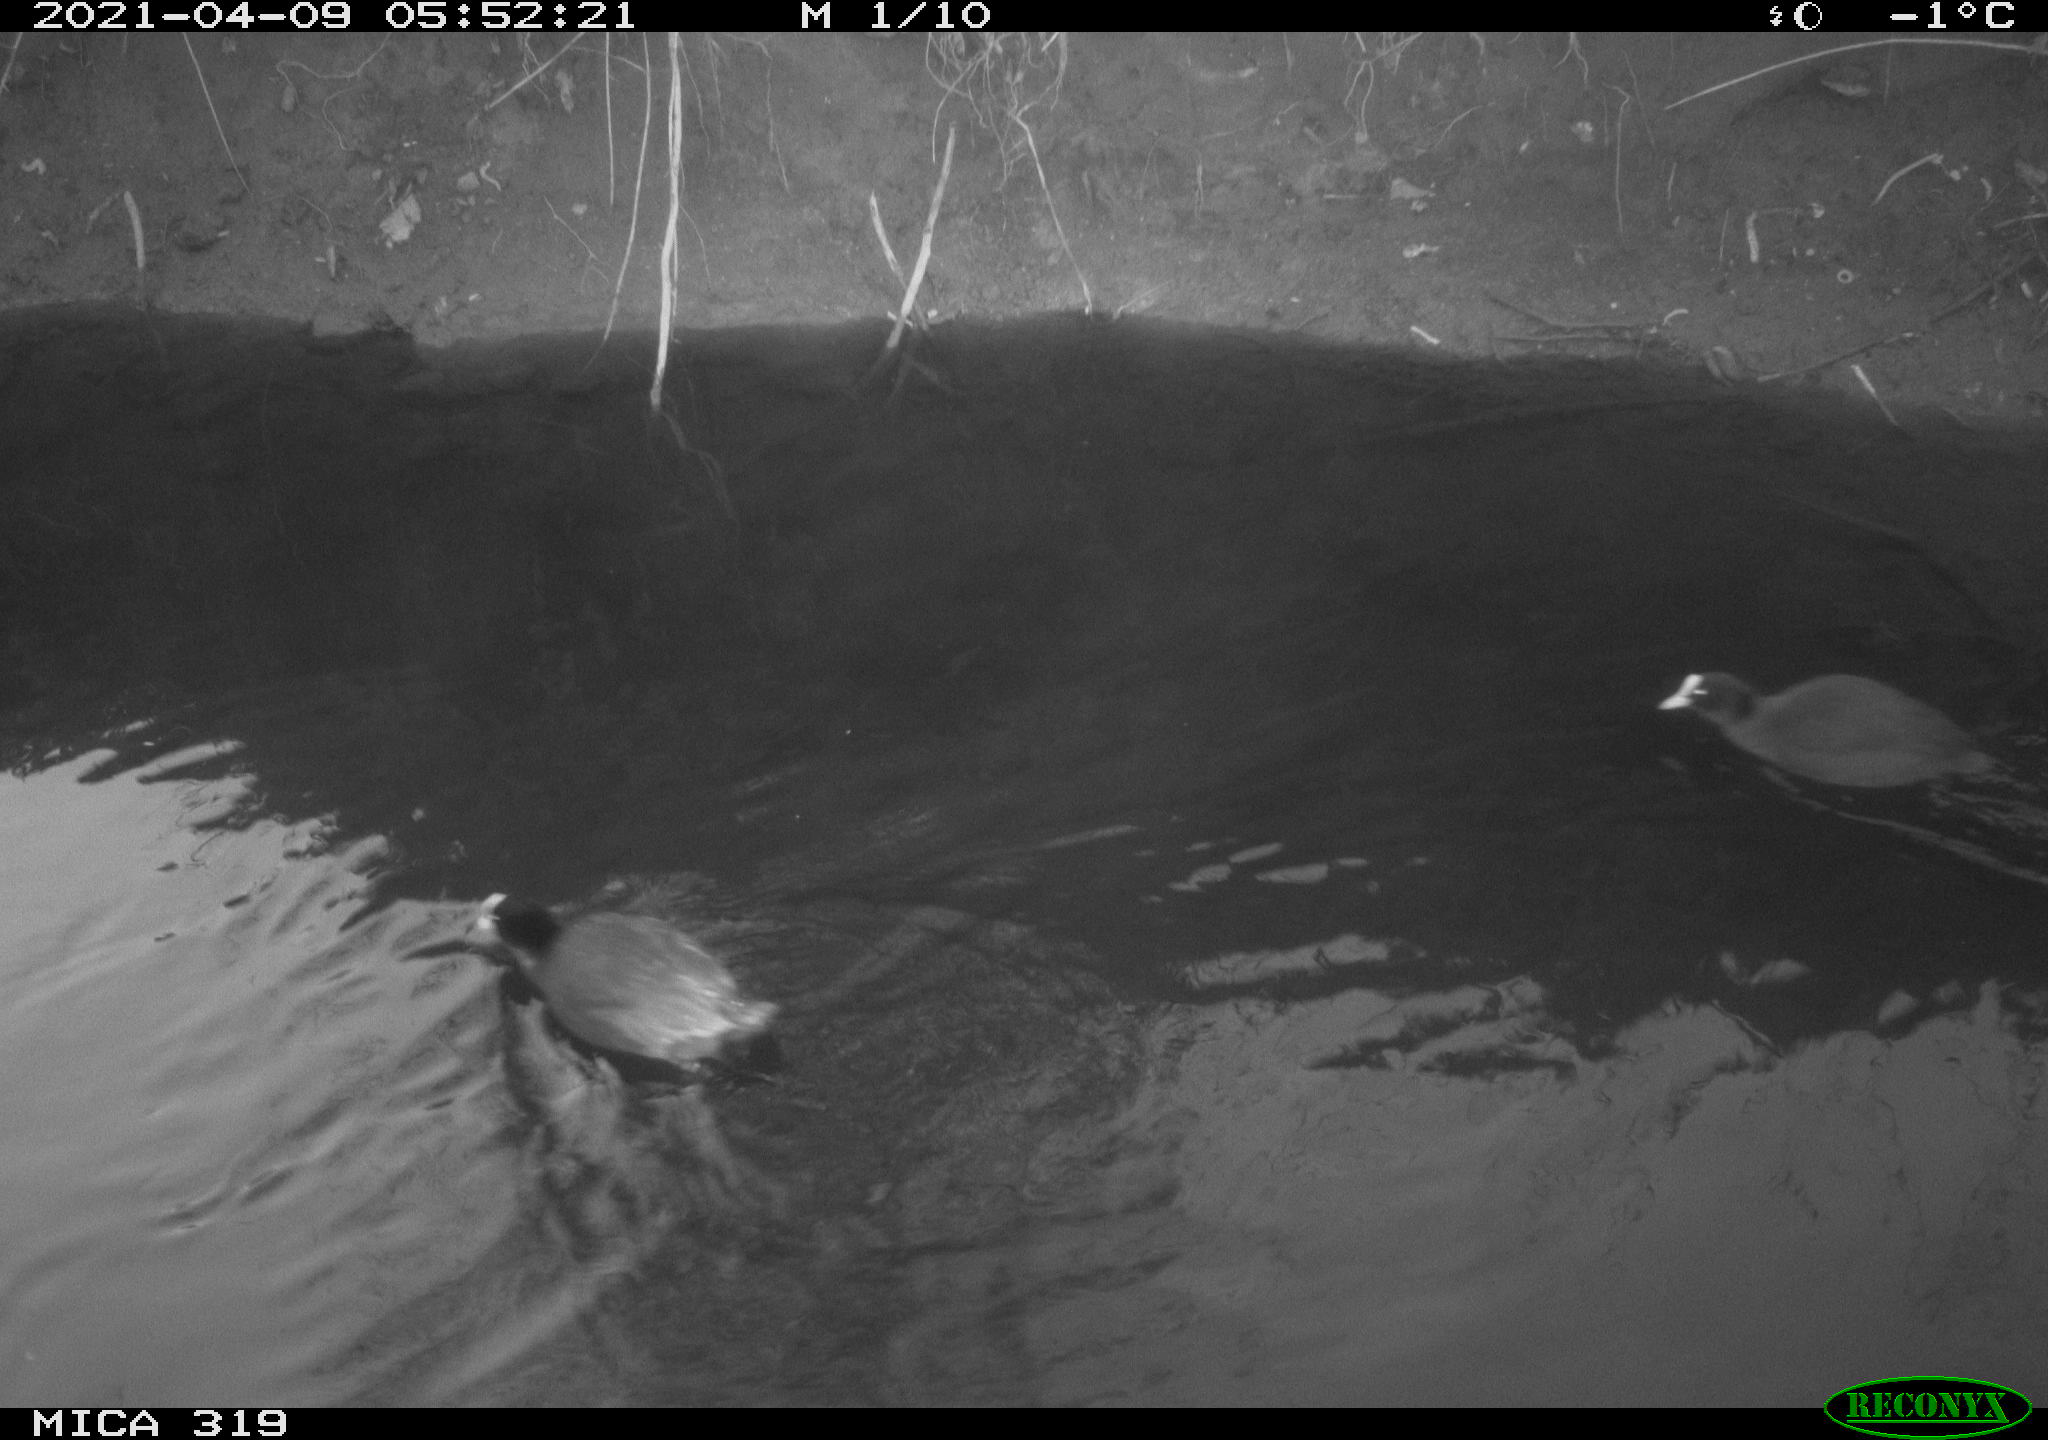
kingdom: Animalia
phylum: Chordata
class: Aves
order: Gruiformes
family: Rallidae
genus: Fulica
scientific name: Fulica atra
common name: Eurasian coot
